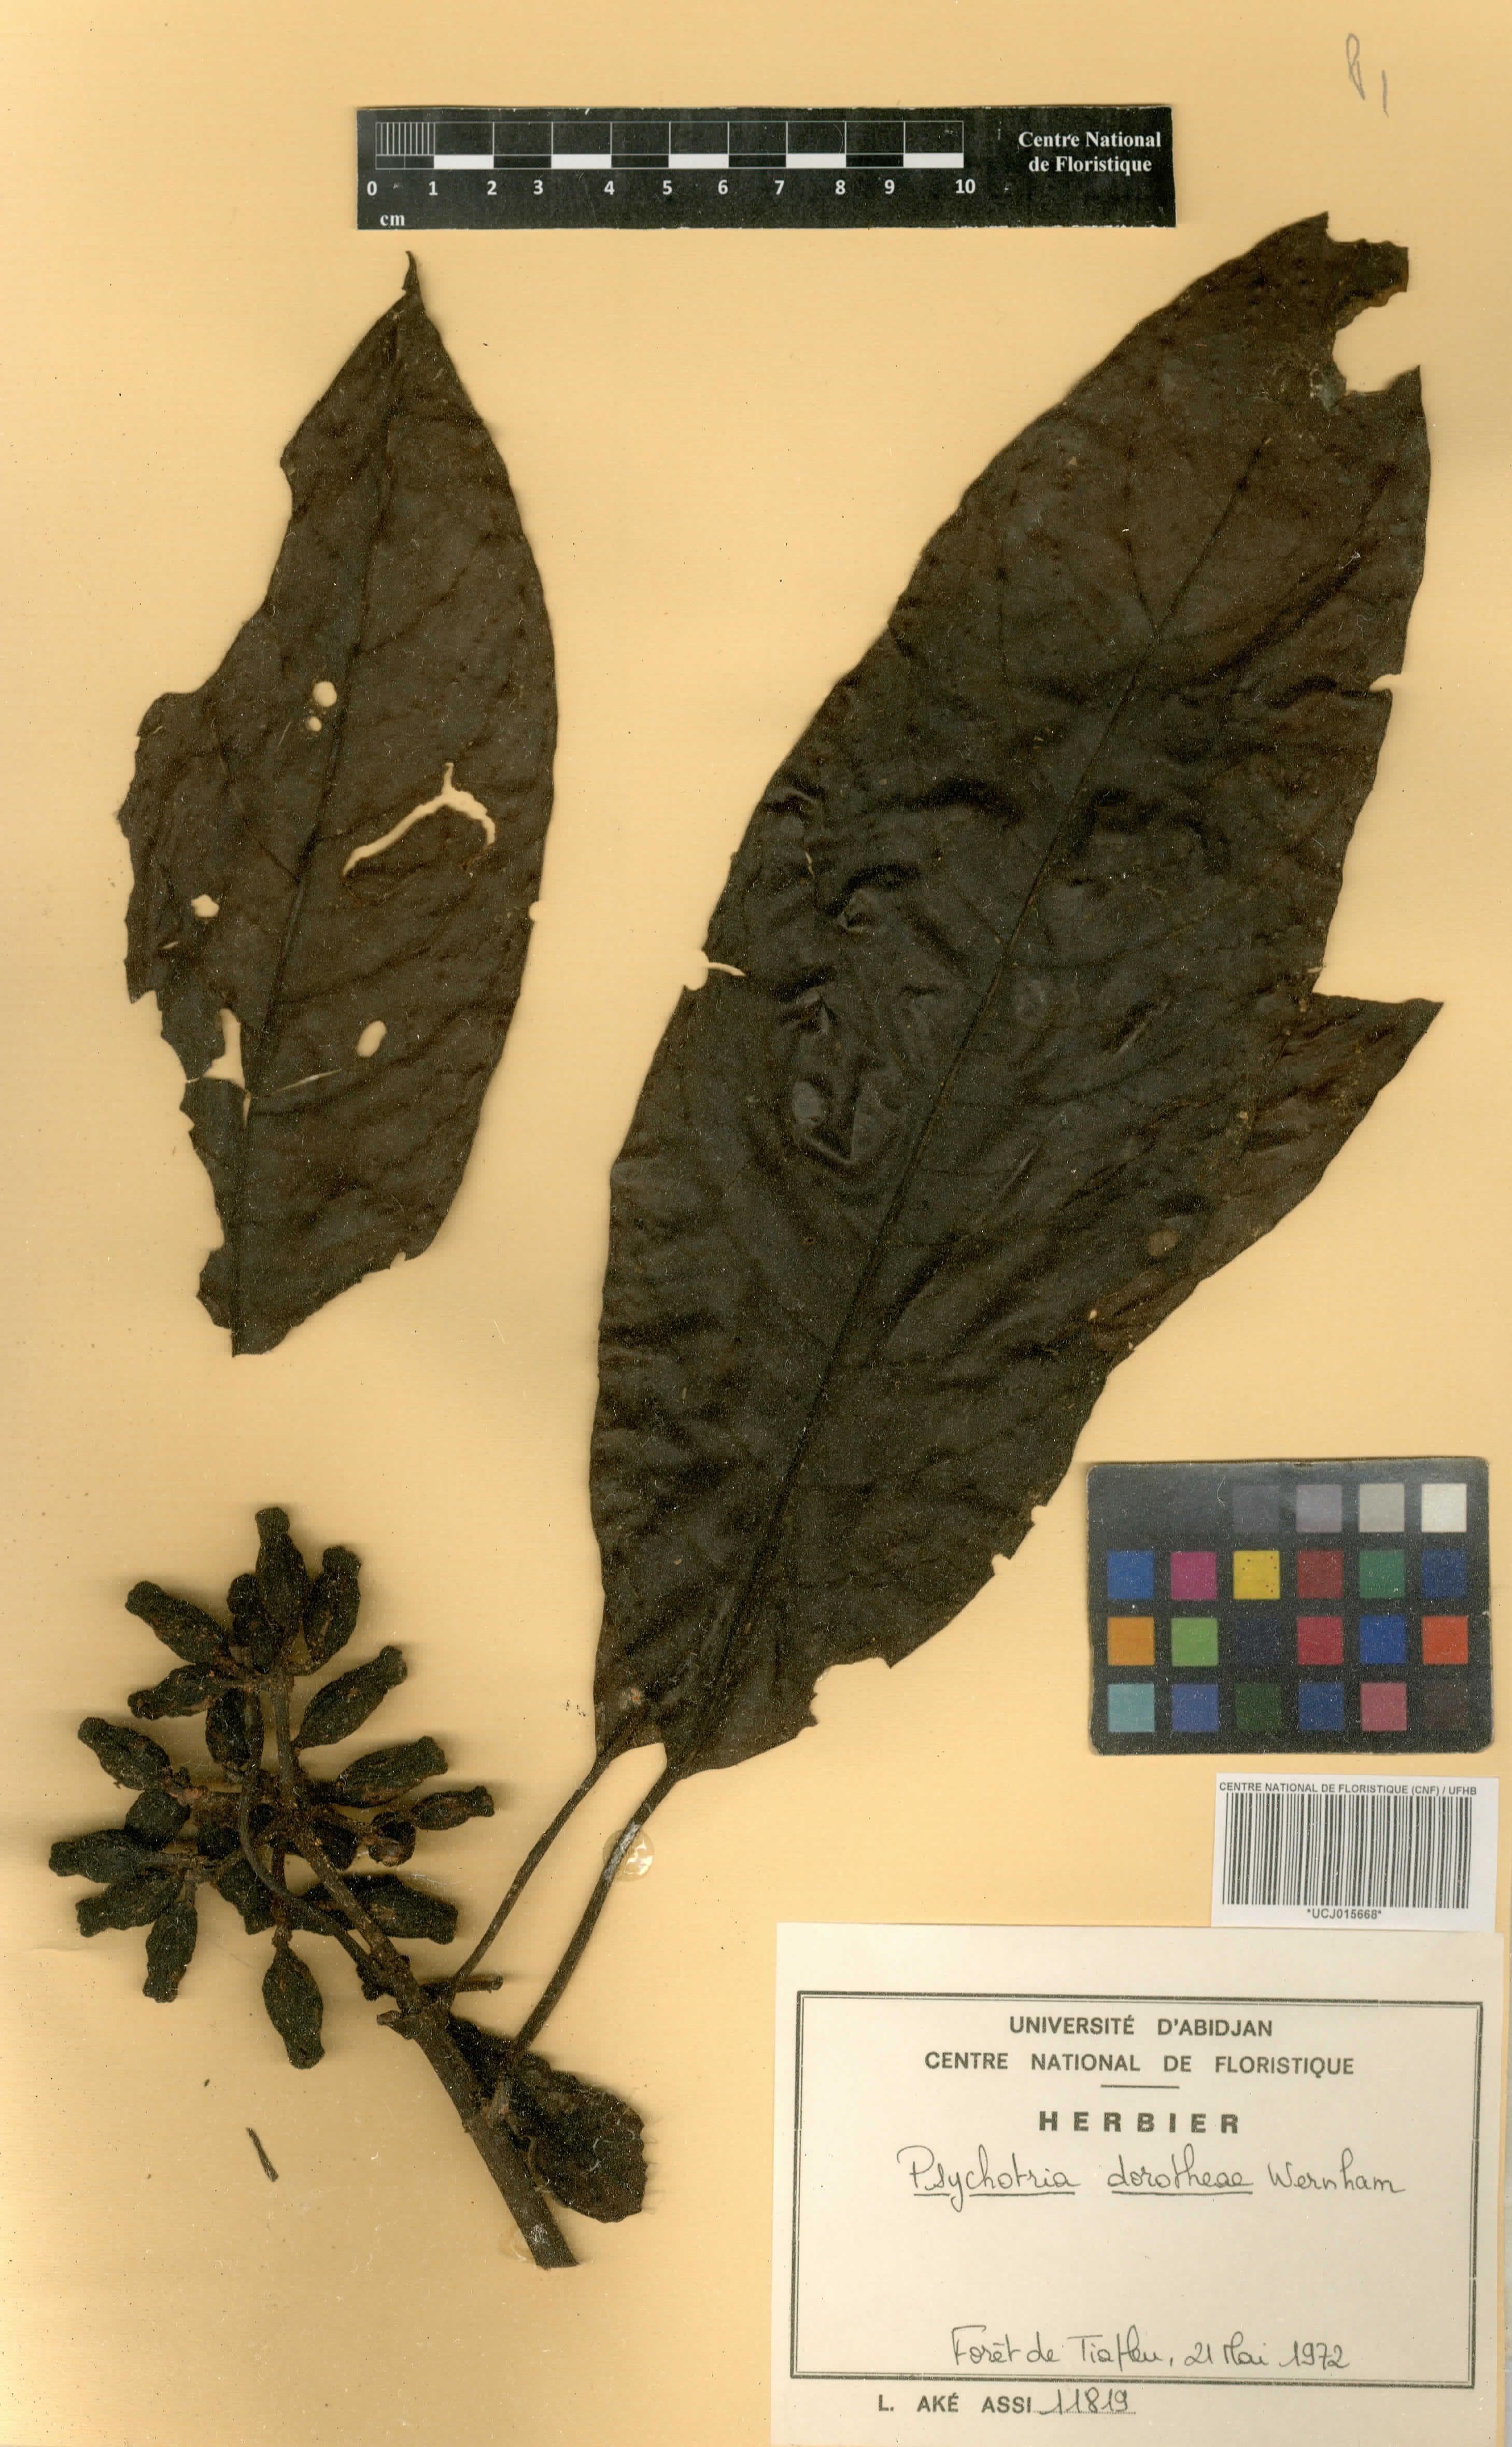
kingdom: Plantae
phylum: Tracheophyta
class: Magnoliopsida
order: Gentianales
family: Rubiaceae
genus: Psychotria
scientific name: Psychotria dorotheae
